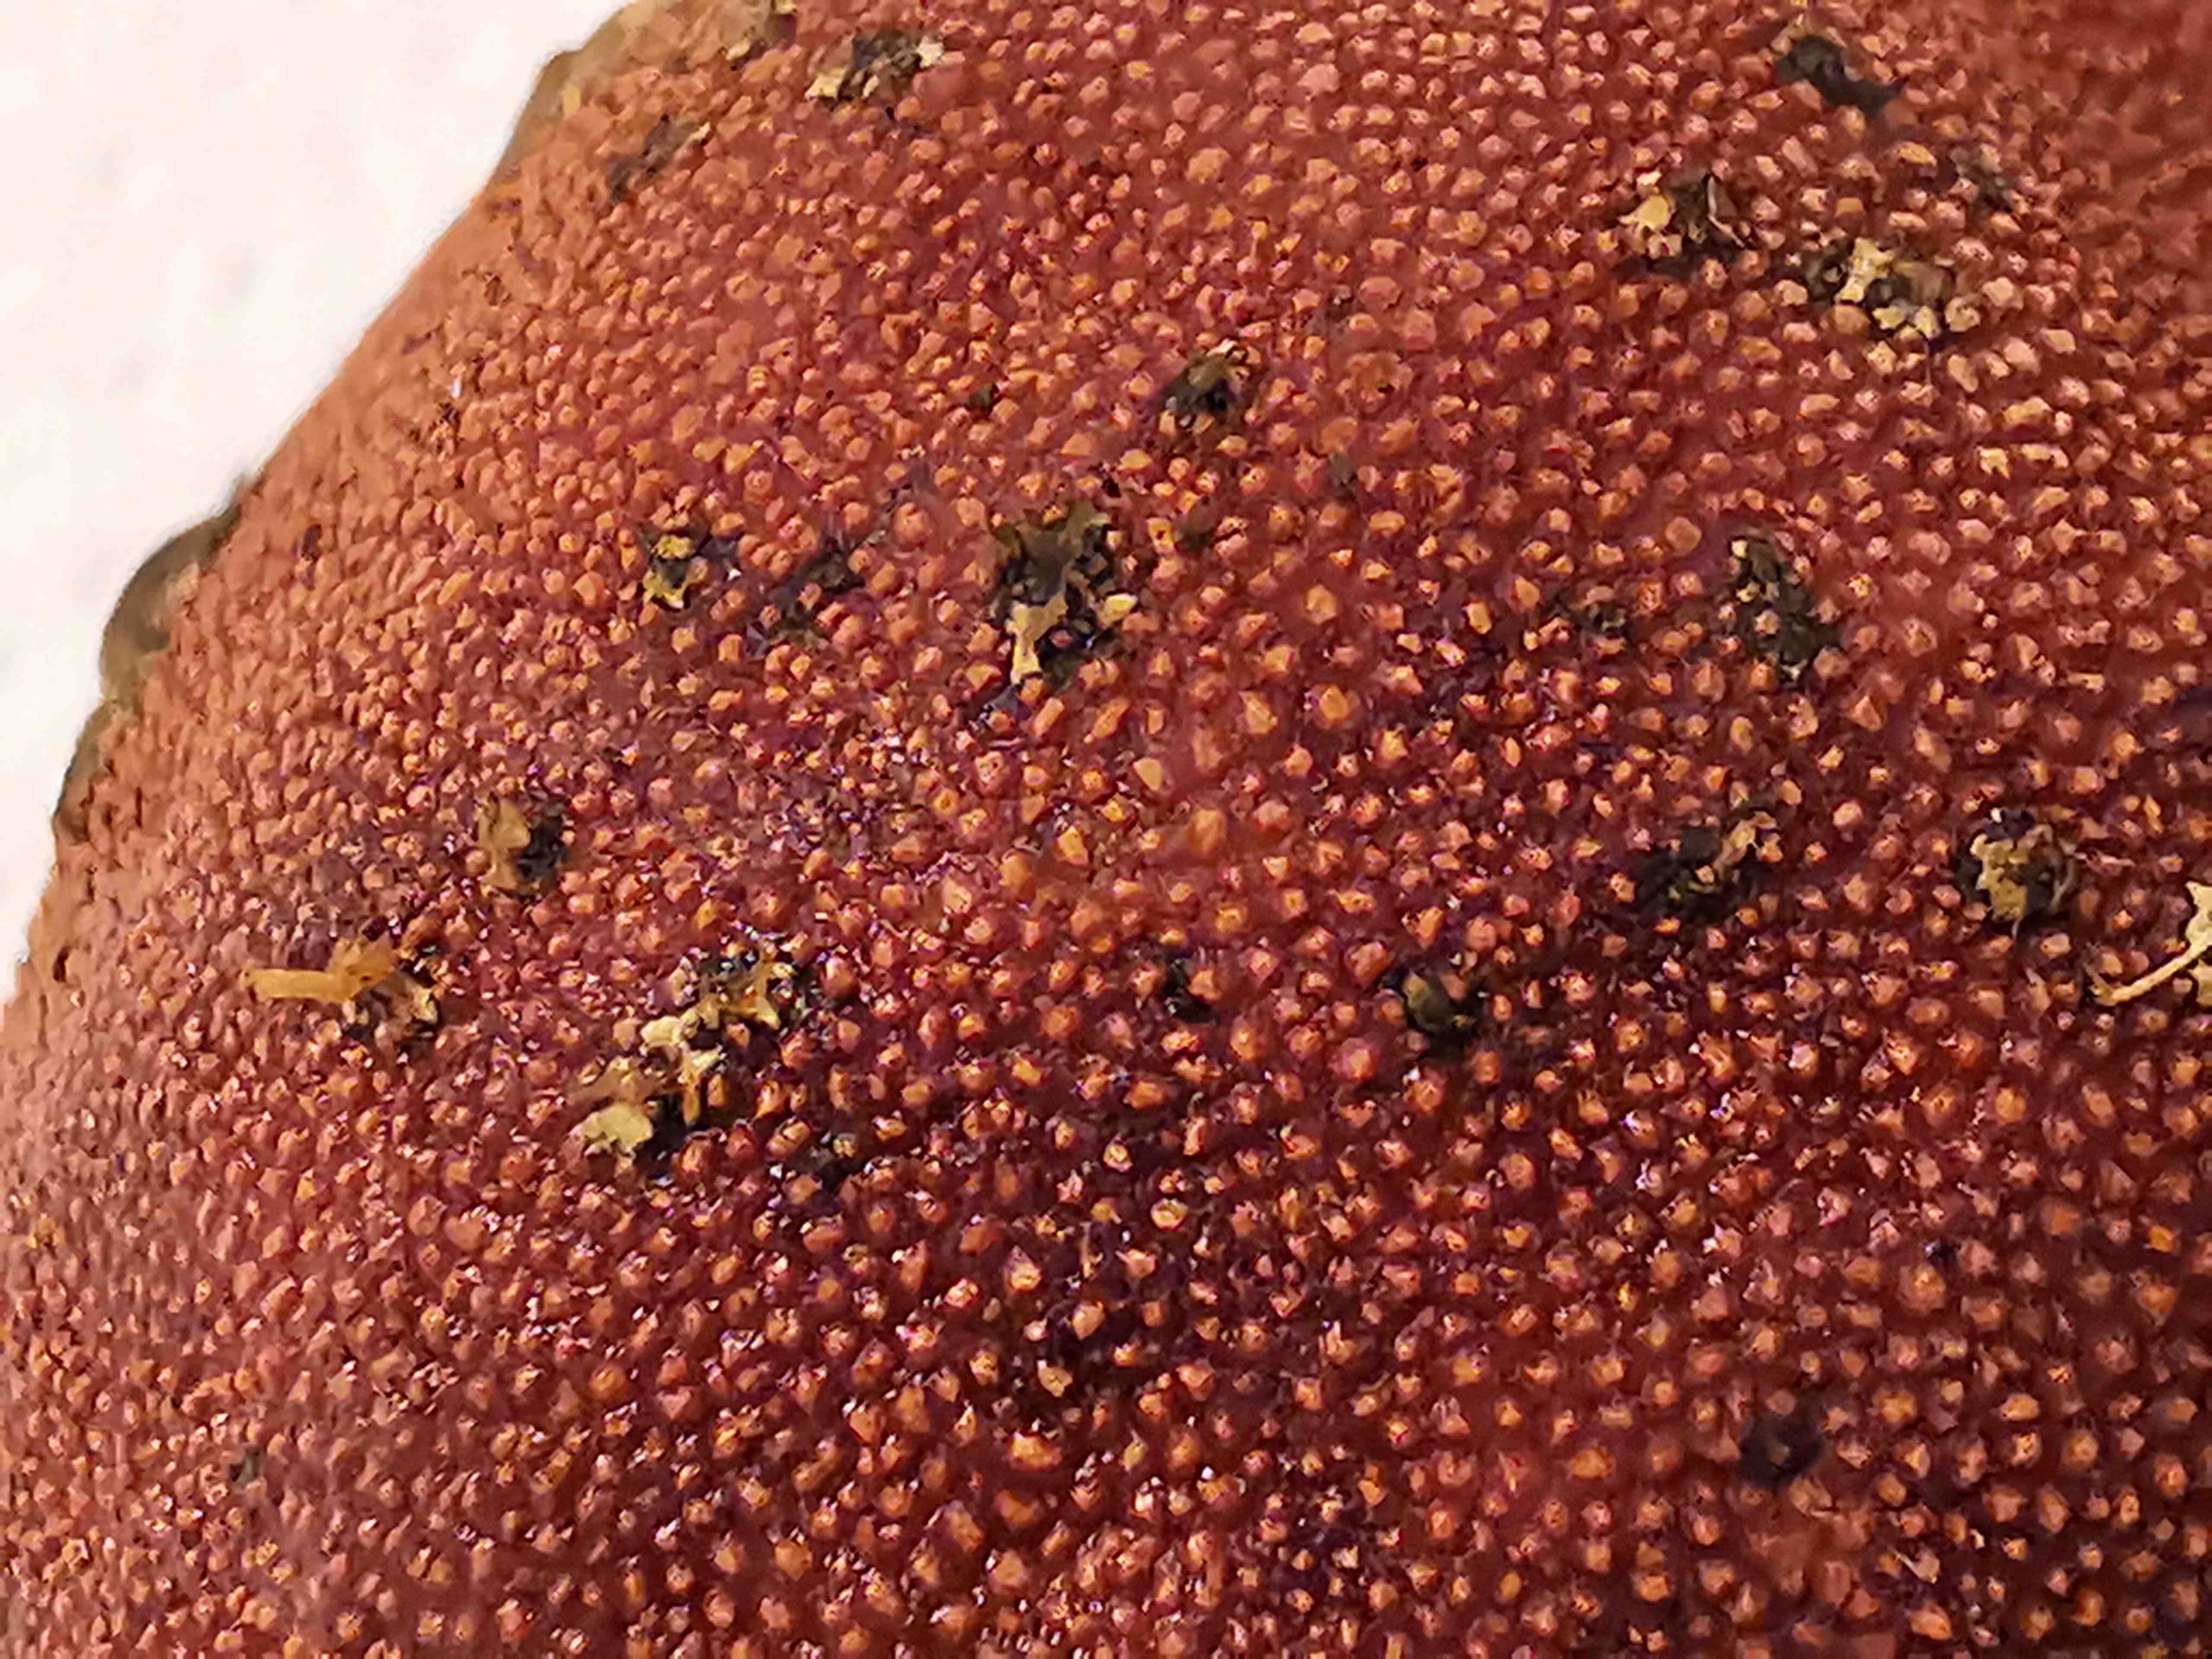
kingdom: Fungi
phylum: Ascomycota
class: Eurotiomycetes
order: Eurotiales
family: Elaphomycetaceae
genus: Elaphomyces
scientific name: Elaphomyces granulatus
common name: grynet hjortetrøffel
